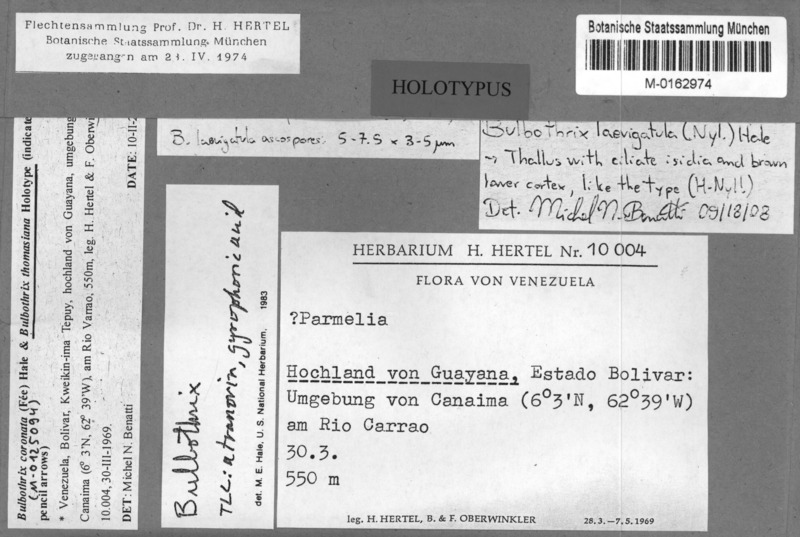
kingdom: Fungi
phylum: Ascomycota
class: Lecanoromycetes
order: Lecanorales
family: Parmeliaceae
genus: Bulbothrix
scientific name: Bulbothrix thomasiana
